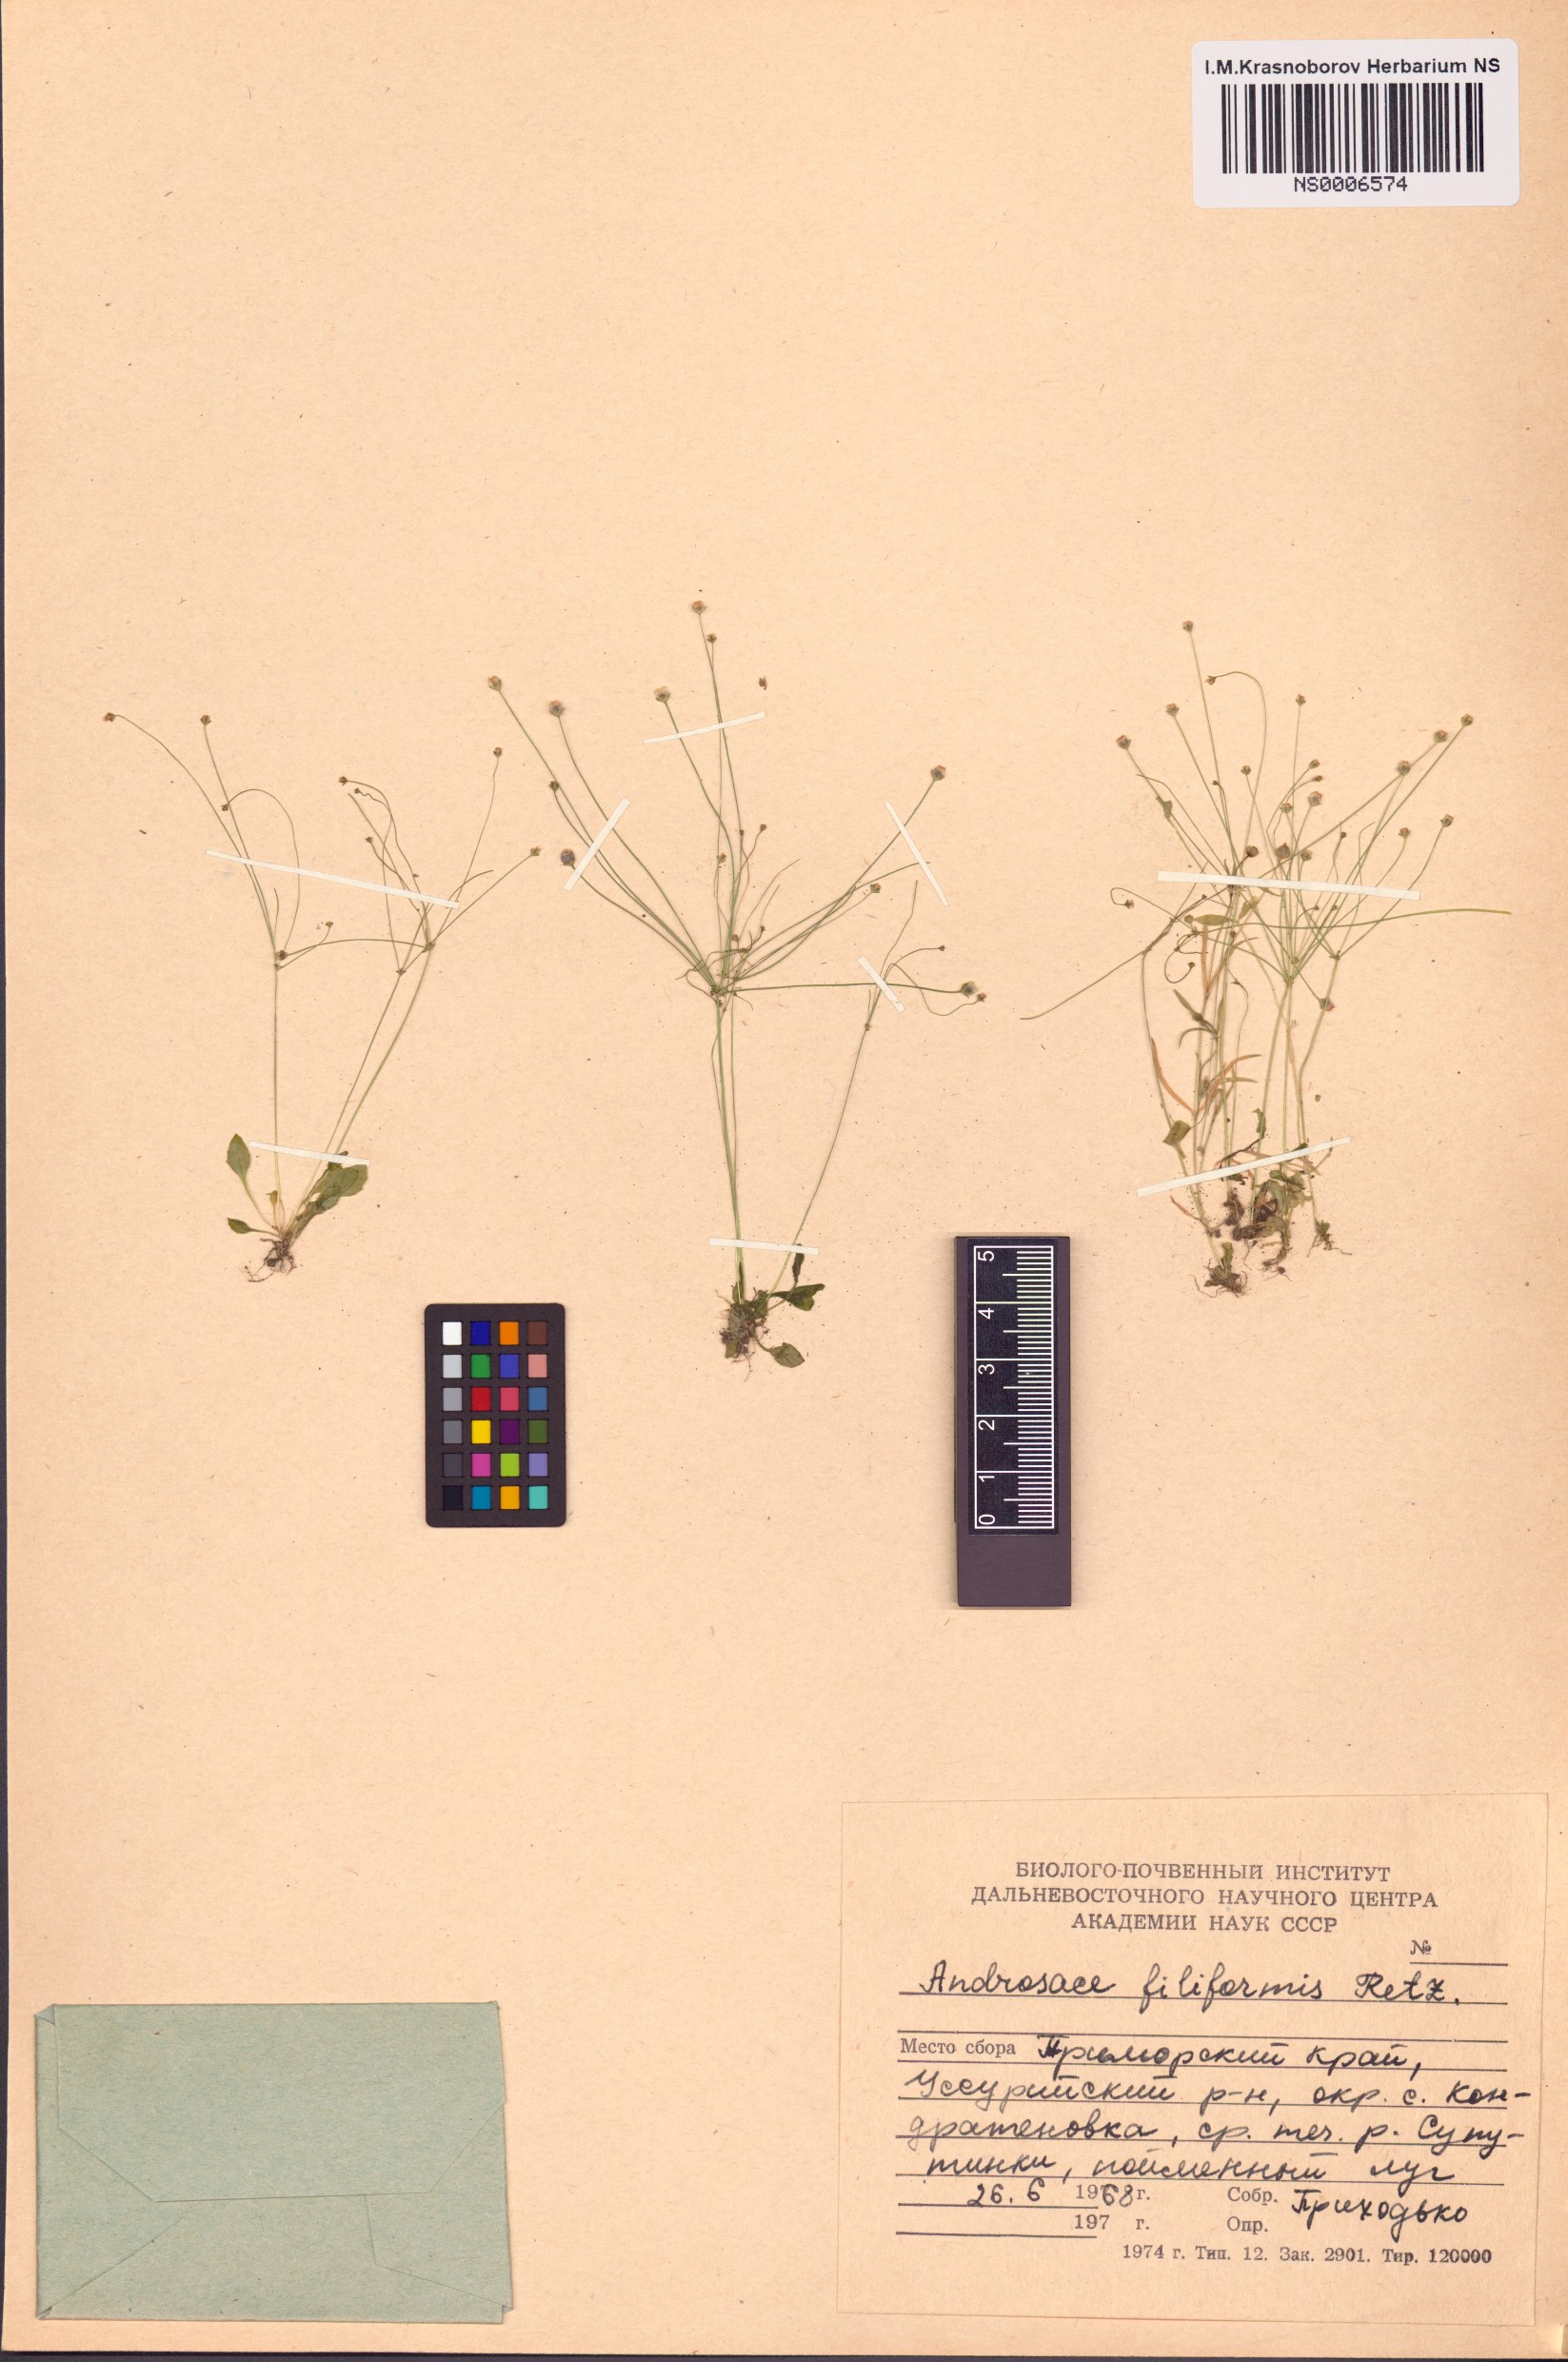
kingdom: Plantae
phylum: Tracheophyta
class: Magnoliopsida
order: Ericales
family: Primulaceae
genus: Androsace
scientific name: Androsace filiformis
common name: Filiform rock jasmine
